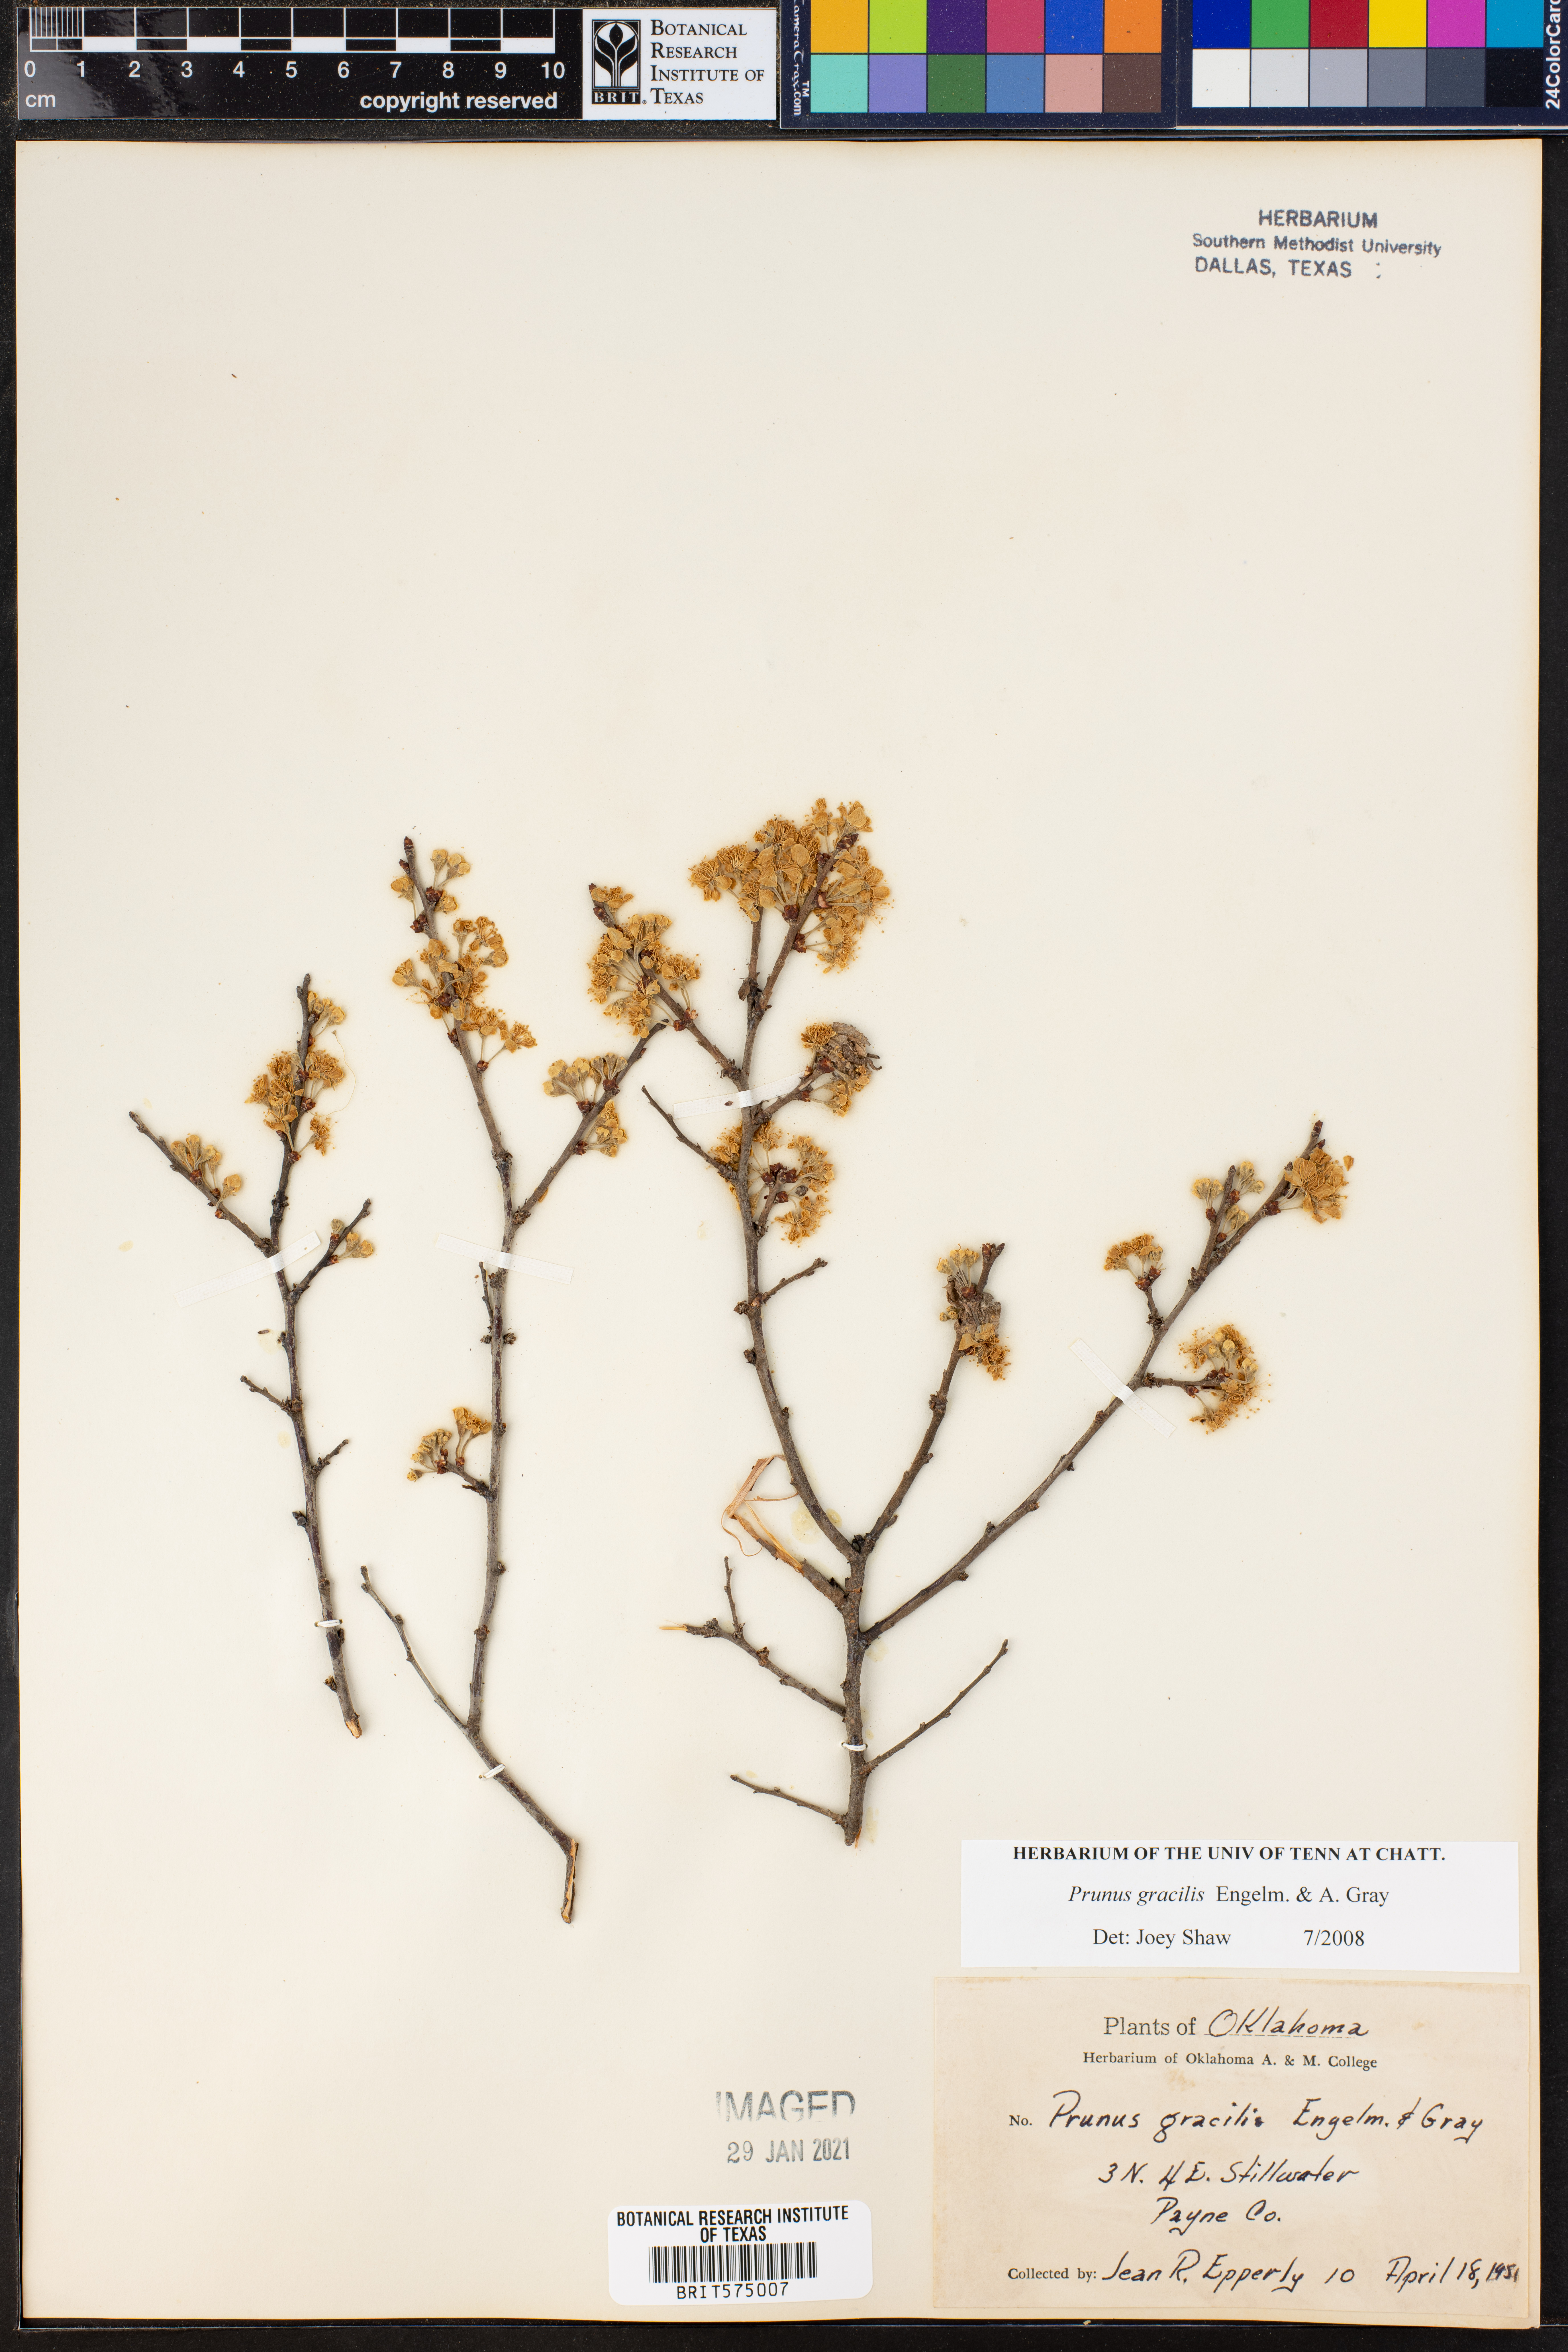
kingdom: Plantae
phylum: Tracheophyta
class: Magnoliopsida
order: Rosales
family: Rosaceae
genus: Prunus
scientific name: Prunus gracilis
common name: Oklahoma plum
